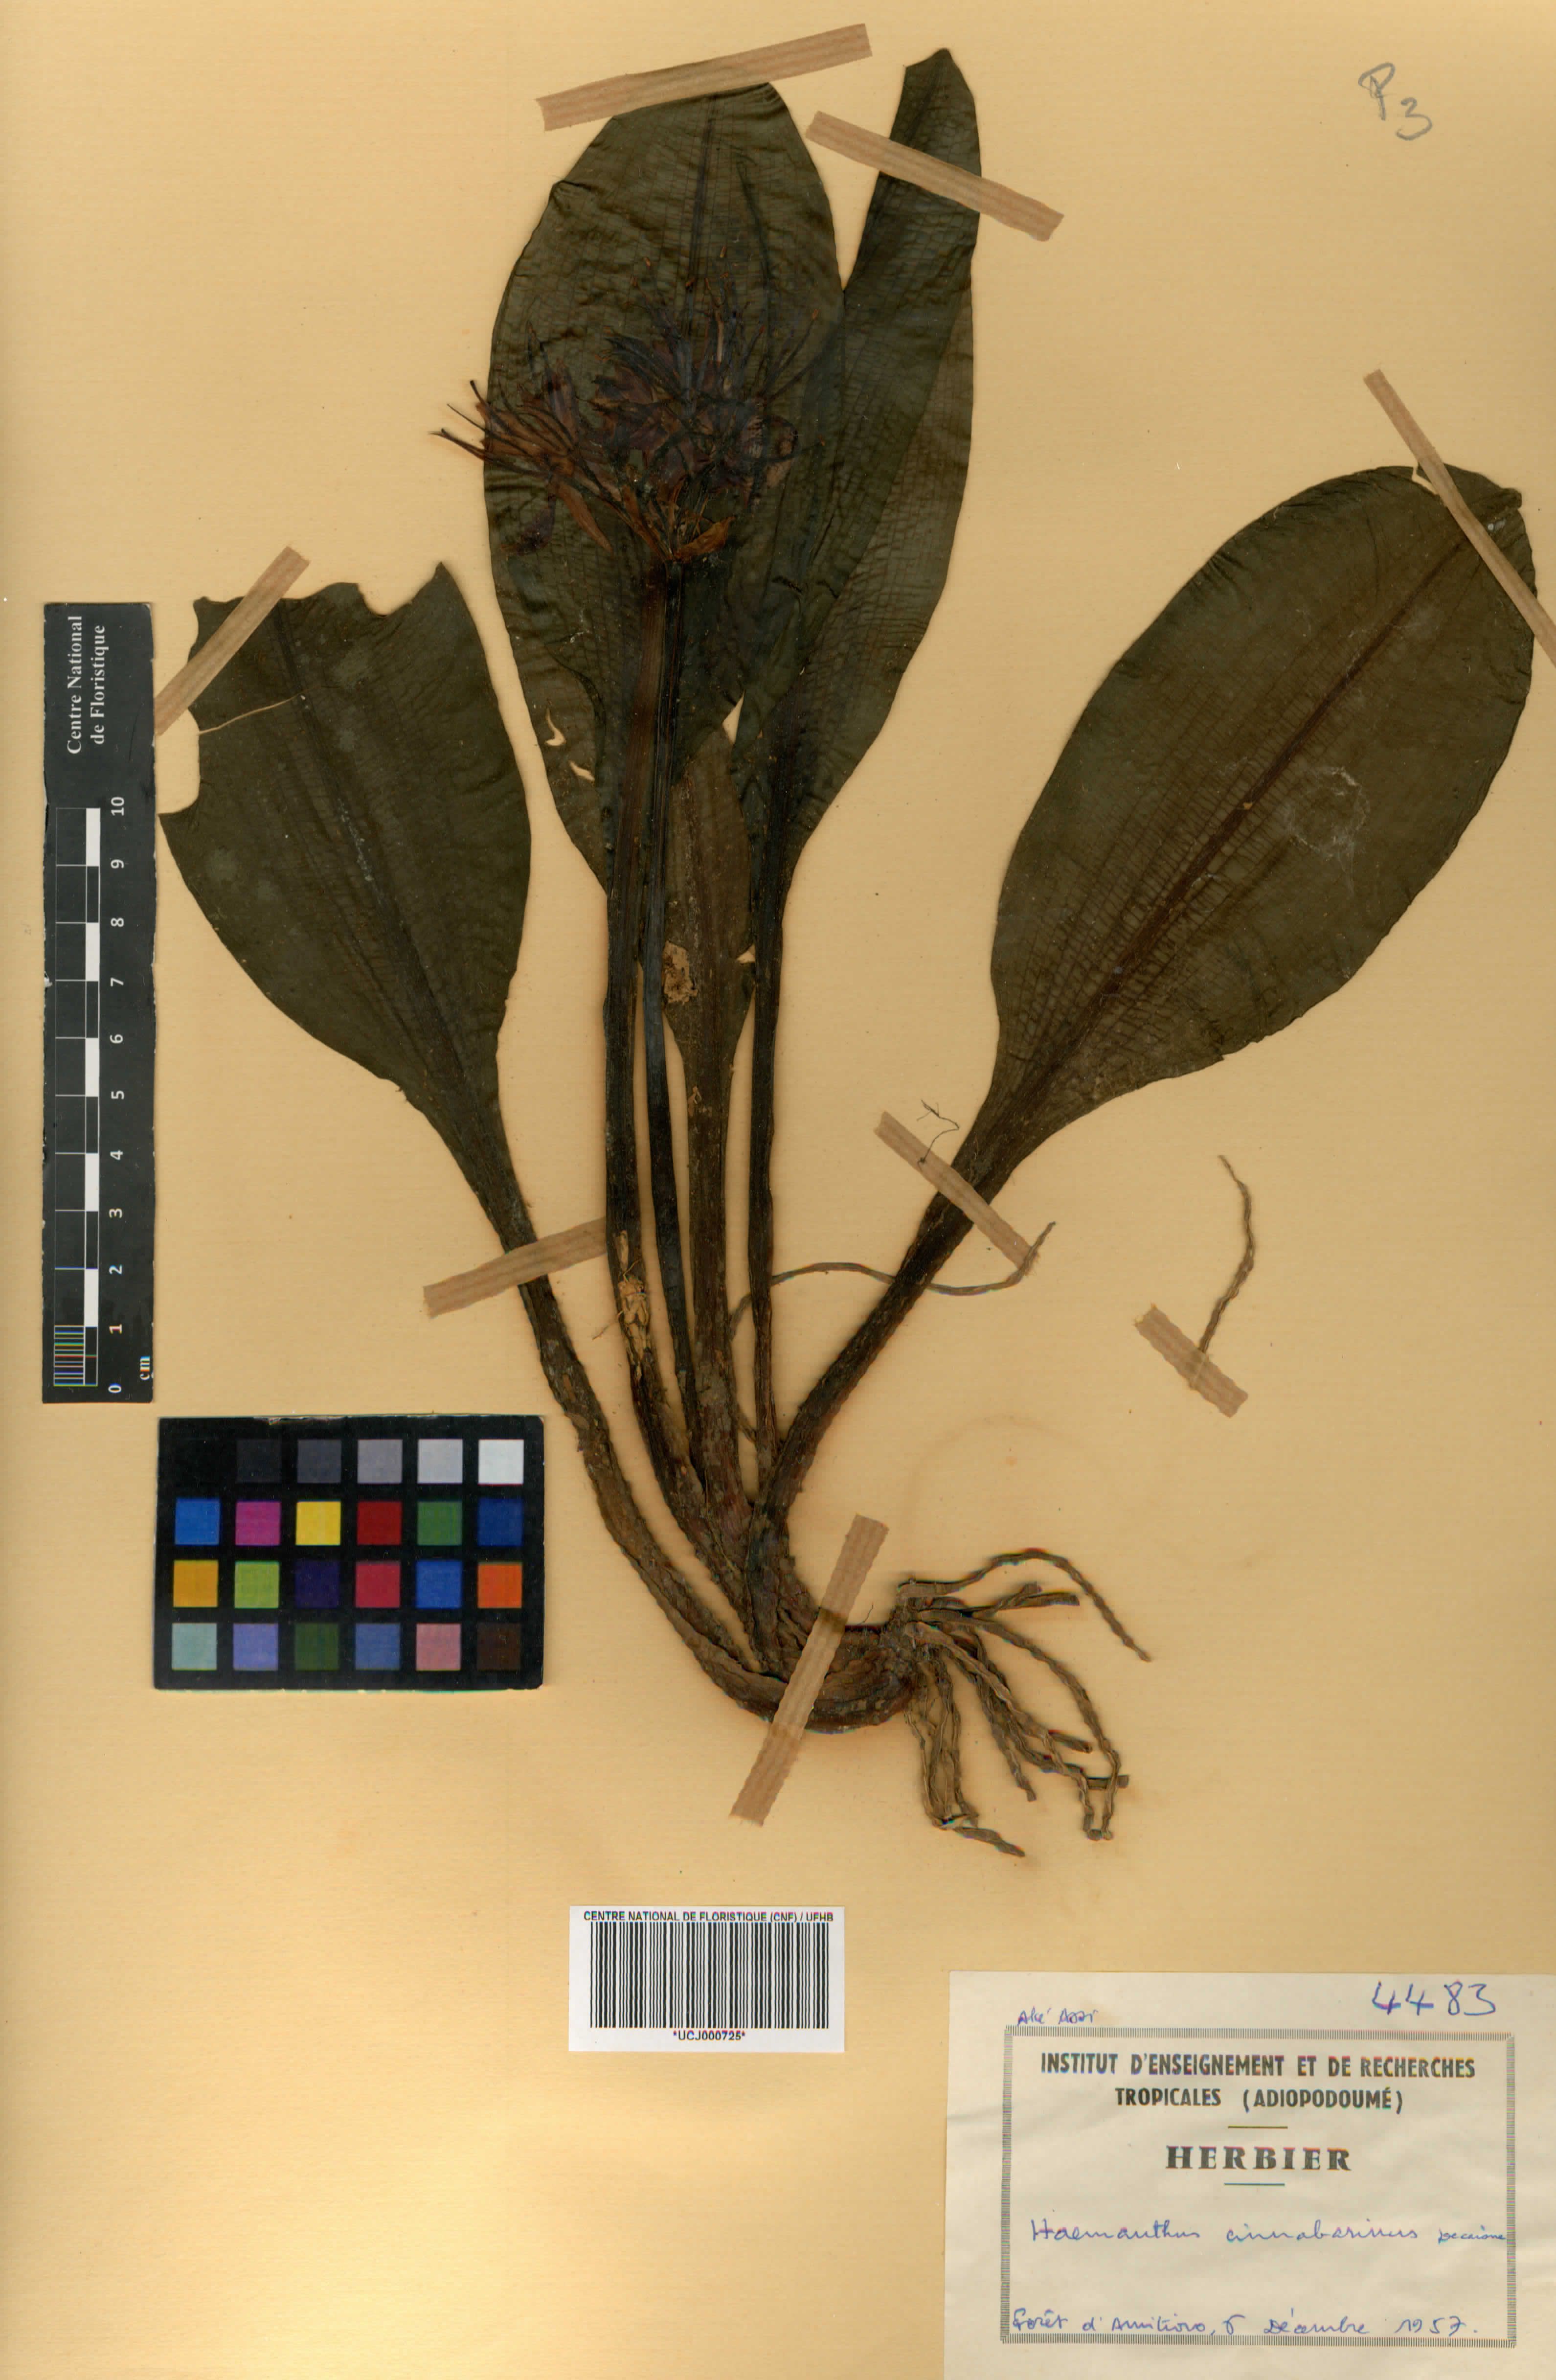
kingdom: Plantae
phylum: Tracheophyta
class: Liliopsida
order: Asparagales
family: Amaryllidaceae
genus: Scadoxus
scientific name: Scadoxus cinnabarinus
